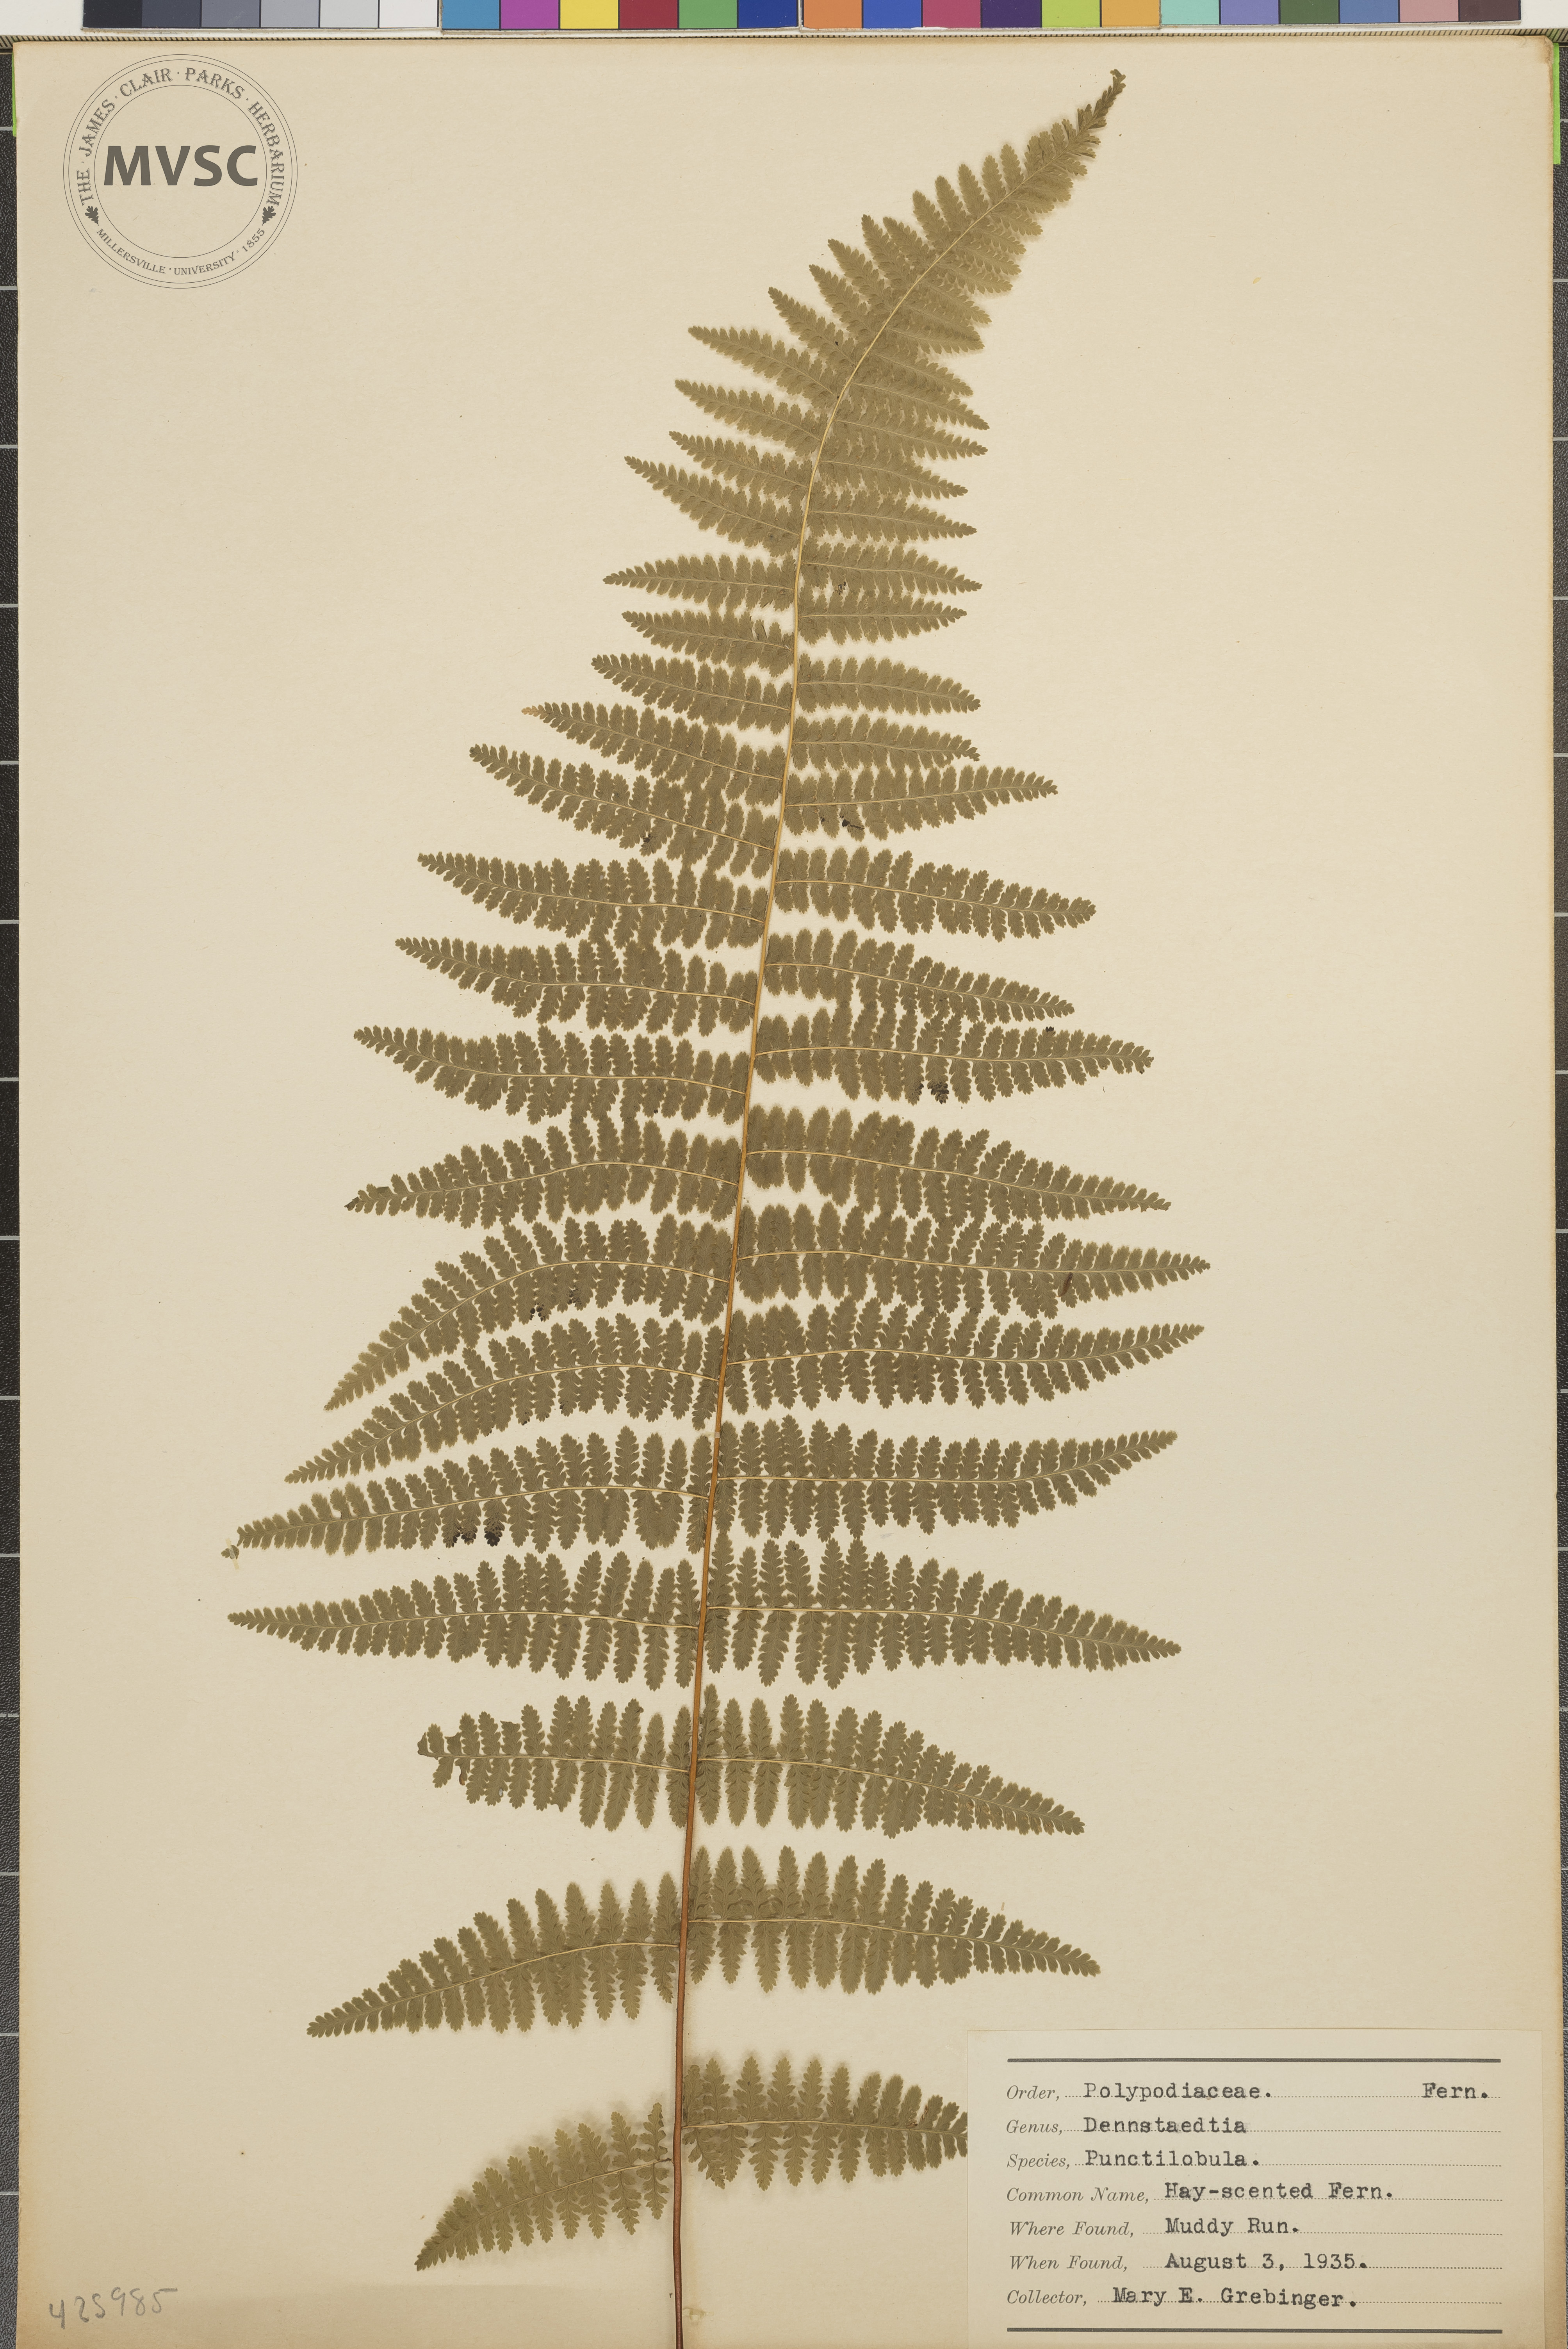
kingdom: Plantae
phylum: Tracheophyta
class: Polypodiopsida
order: Polypodiales
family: Dennstaedtiaceae
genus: Sitobolium
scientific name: Sitobolium punctilobum
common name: Hay-scented Fern
